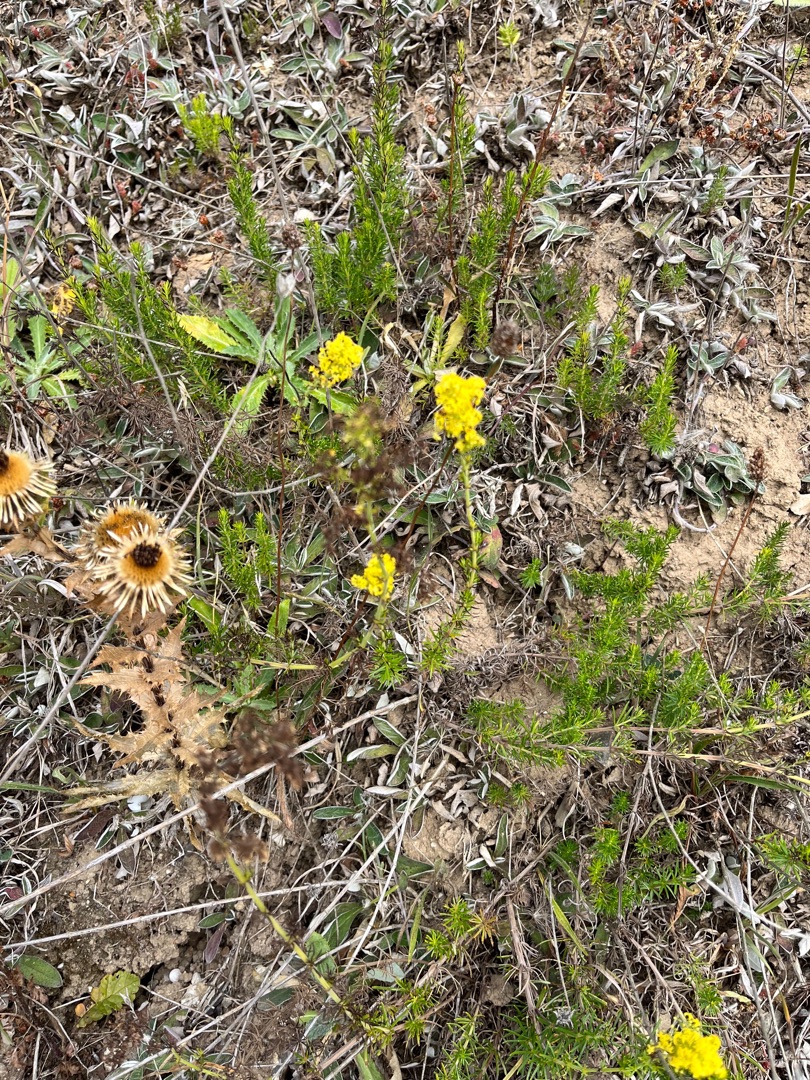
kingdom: Plantae
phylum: Tracheophyta
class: Magnoliopsida
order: Gentianales
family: Rubiaceae
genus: Galium
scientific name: Galium verum
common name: Gul snerre
